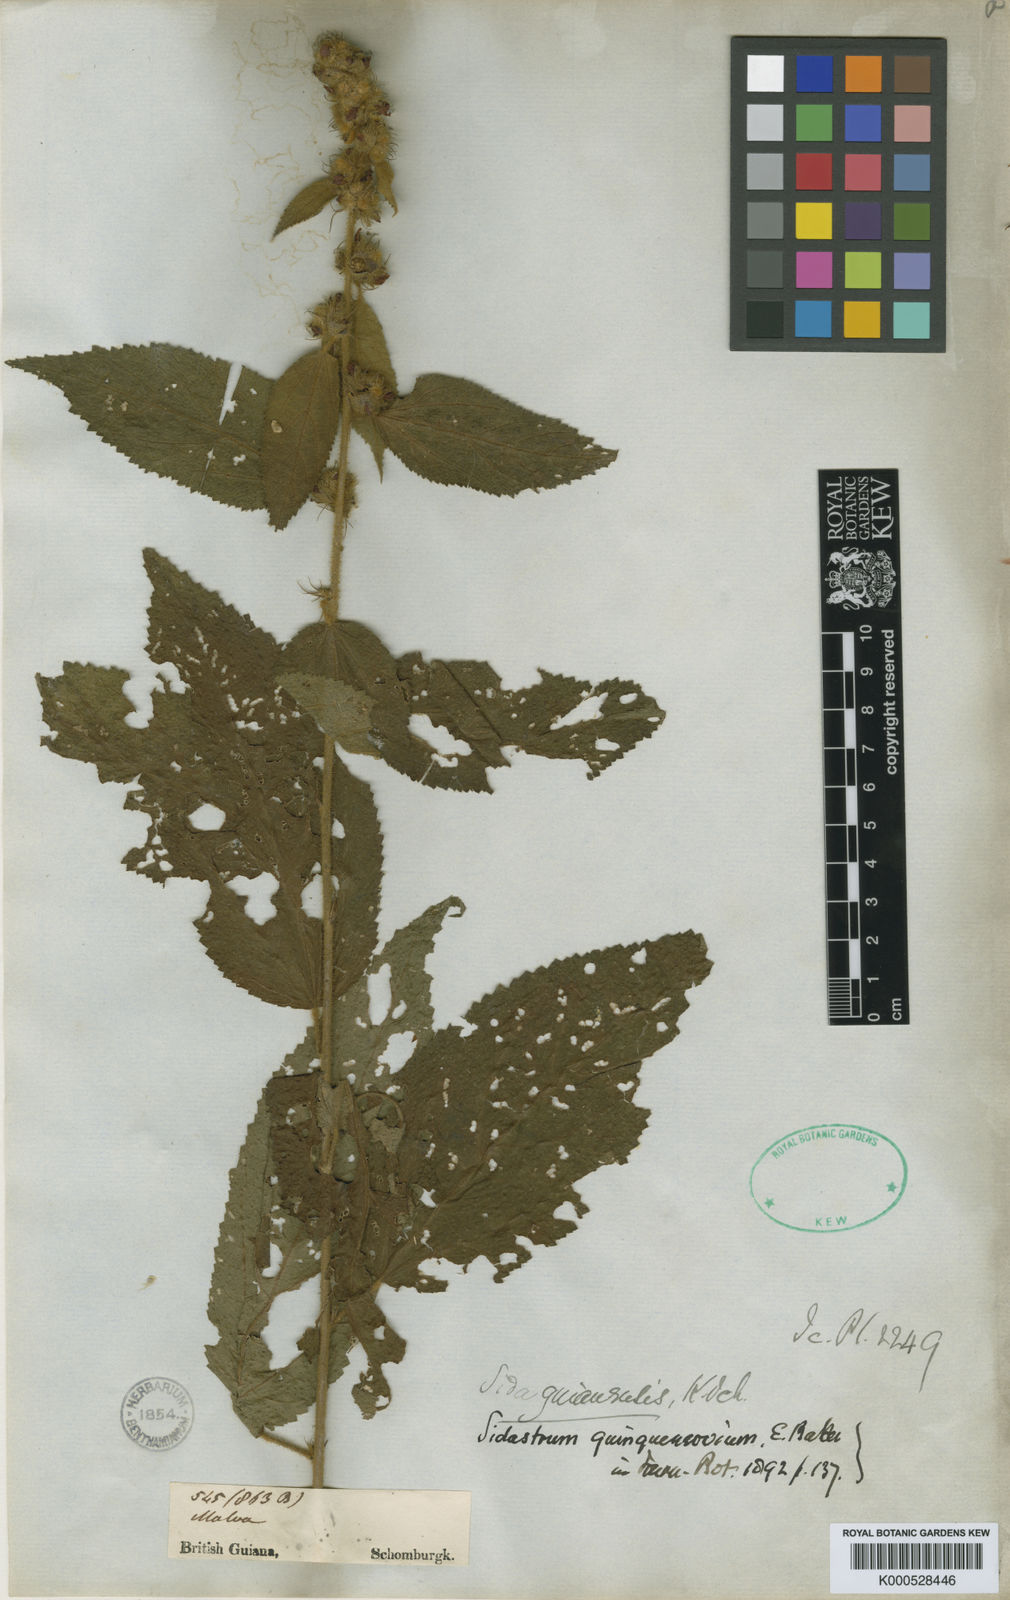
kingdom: Plantae
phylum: Tracheophyta
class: Magnoliopsida
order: Malvales
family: Malvaceae
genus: Sidastrum
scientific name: Sidastrum quinquenervium
